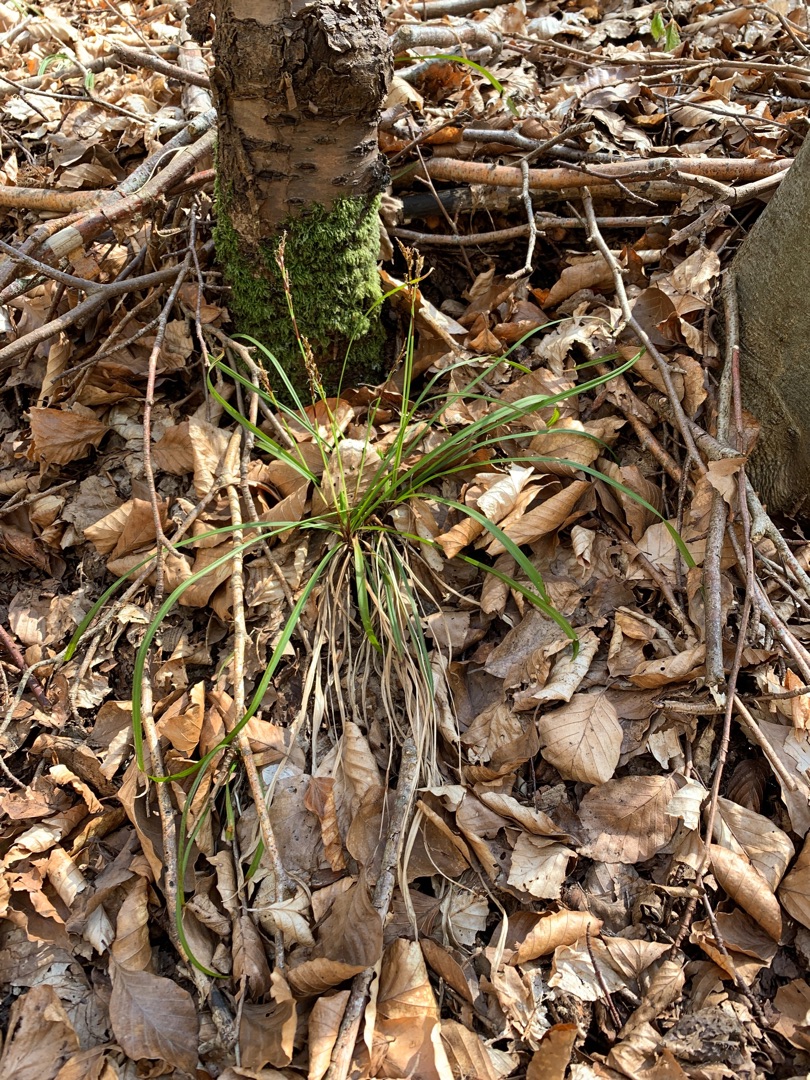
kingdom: Plantae
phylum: Tracheophyta
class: Liliopsida
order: Poales
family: Cyperaceae
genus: Carex
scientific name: Carex digitata
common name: Finger-star
